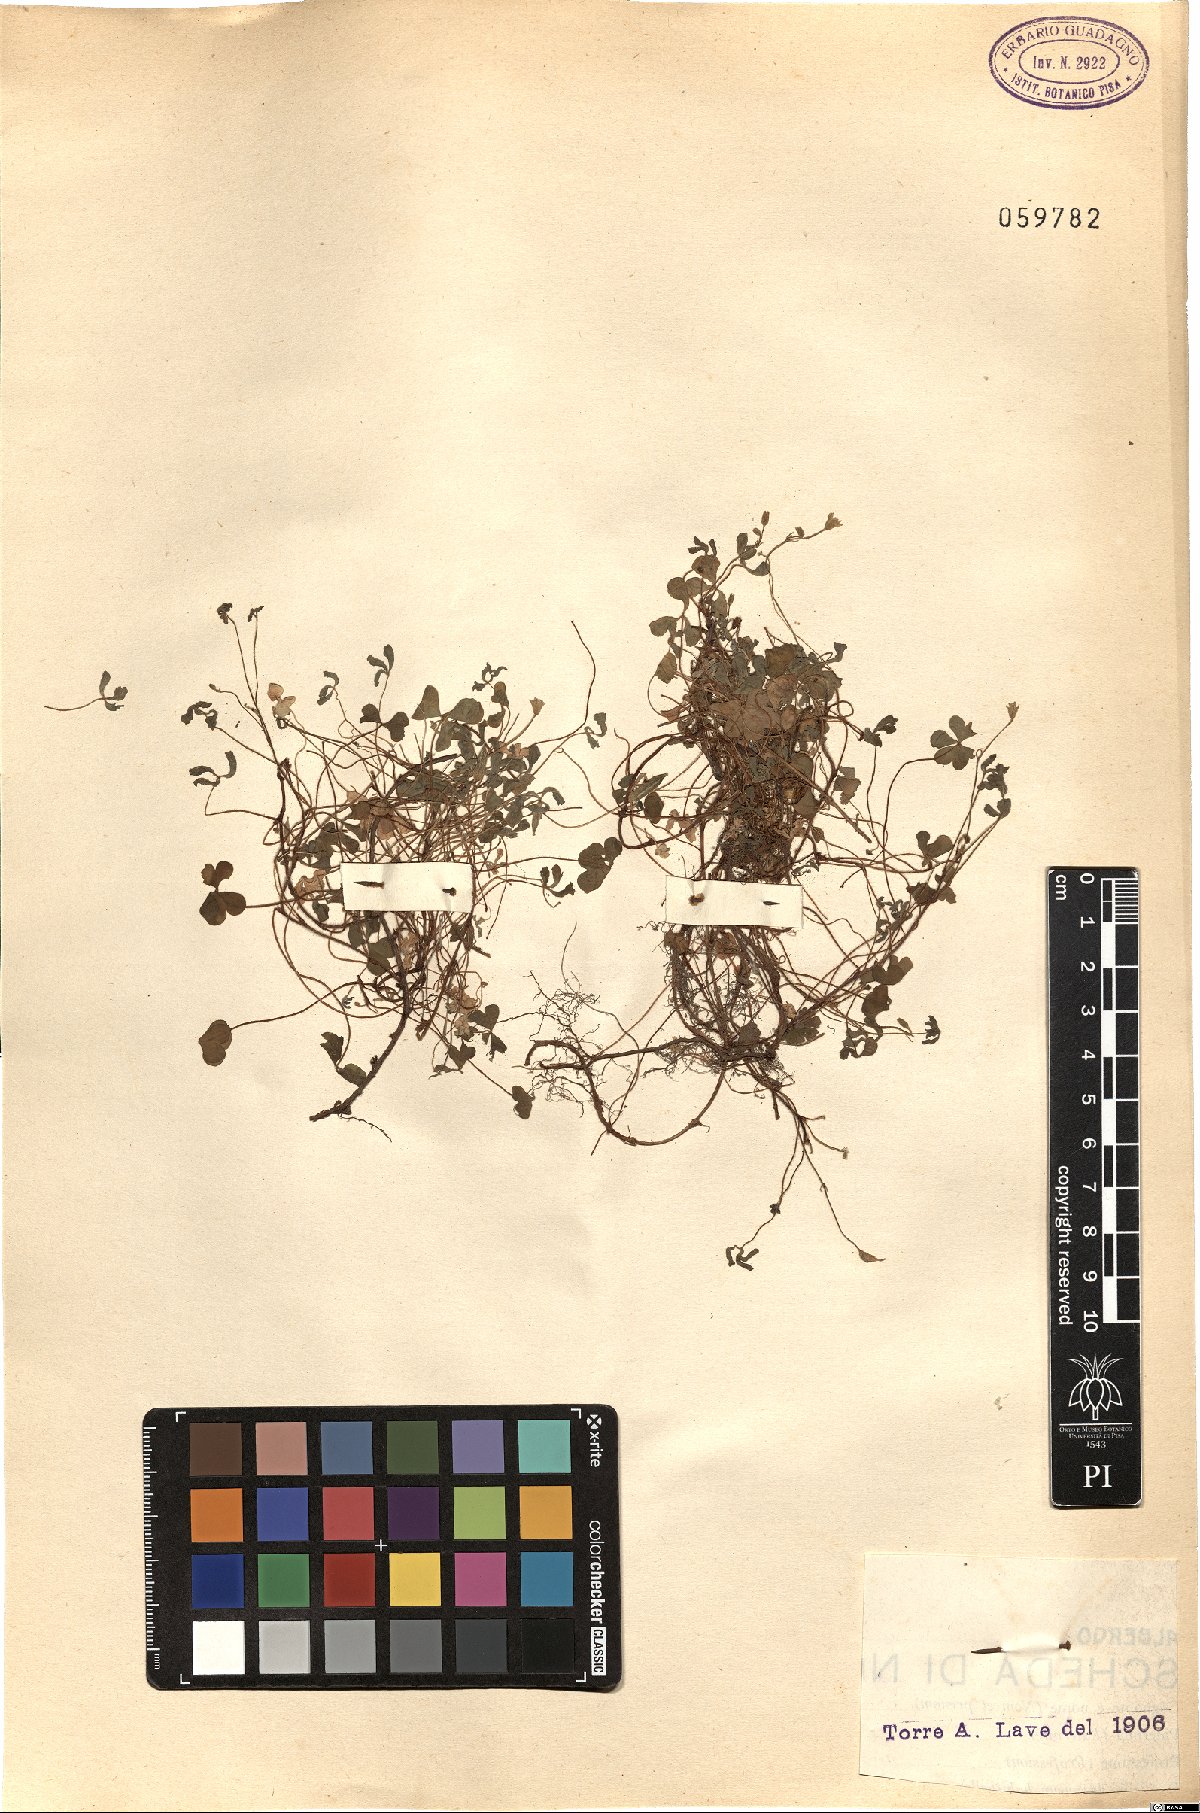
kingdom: Plantae
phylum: Tracheophyta
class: Magnoliopsida
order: Oxalidales
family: Oxalidaceae
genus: Oxalis
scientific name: Oxalis
